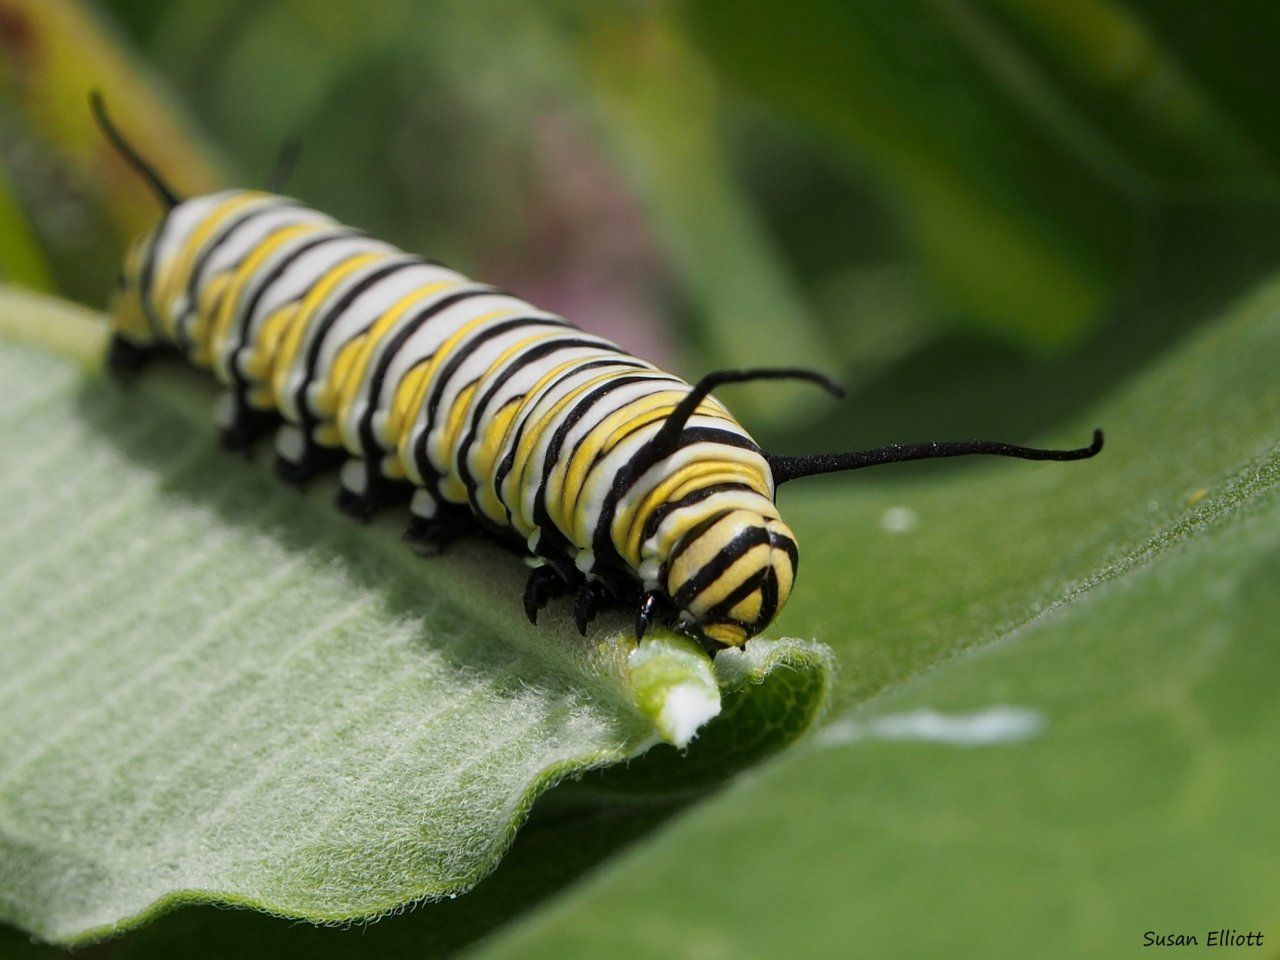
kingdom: Animalia
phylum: Arthropoda
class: Insecta
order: Lepidoptera
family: Nymphalidae
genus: Danaus
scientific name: Danaus plexippus
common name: Monarch
